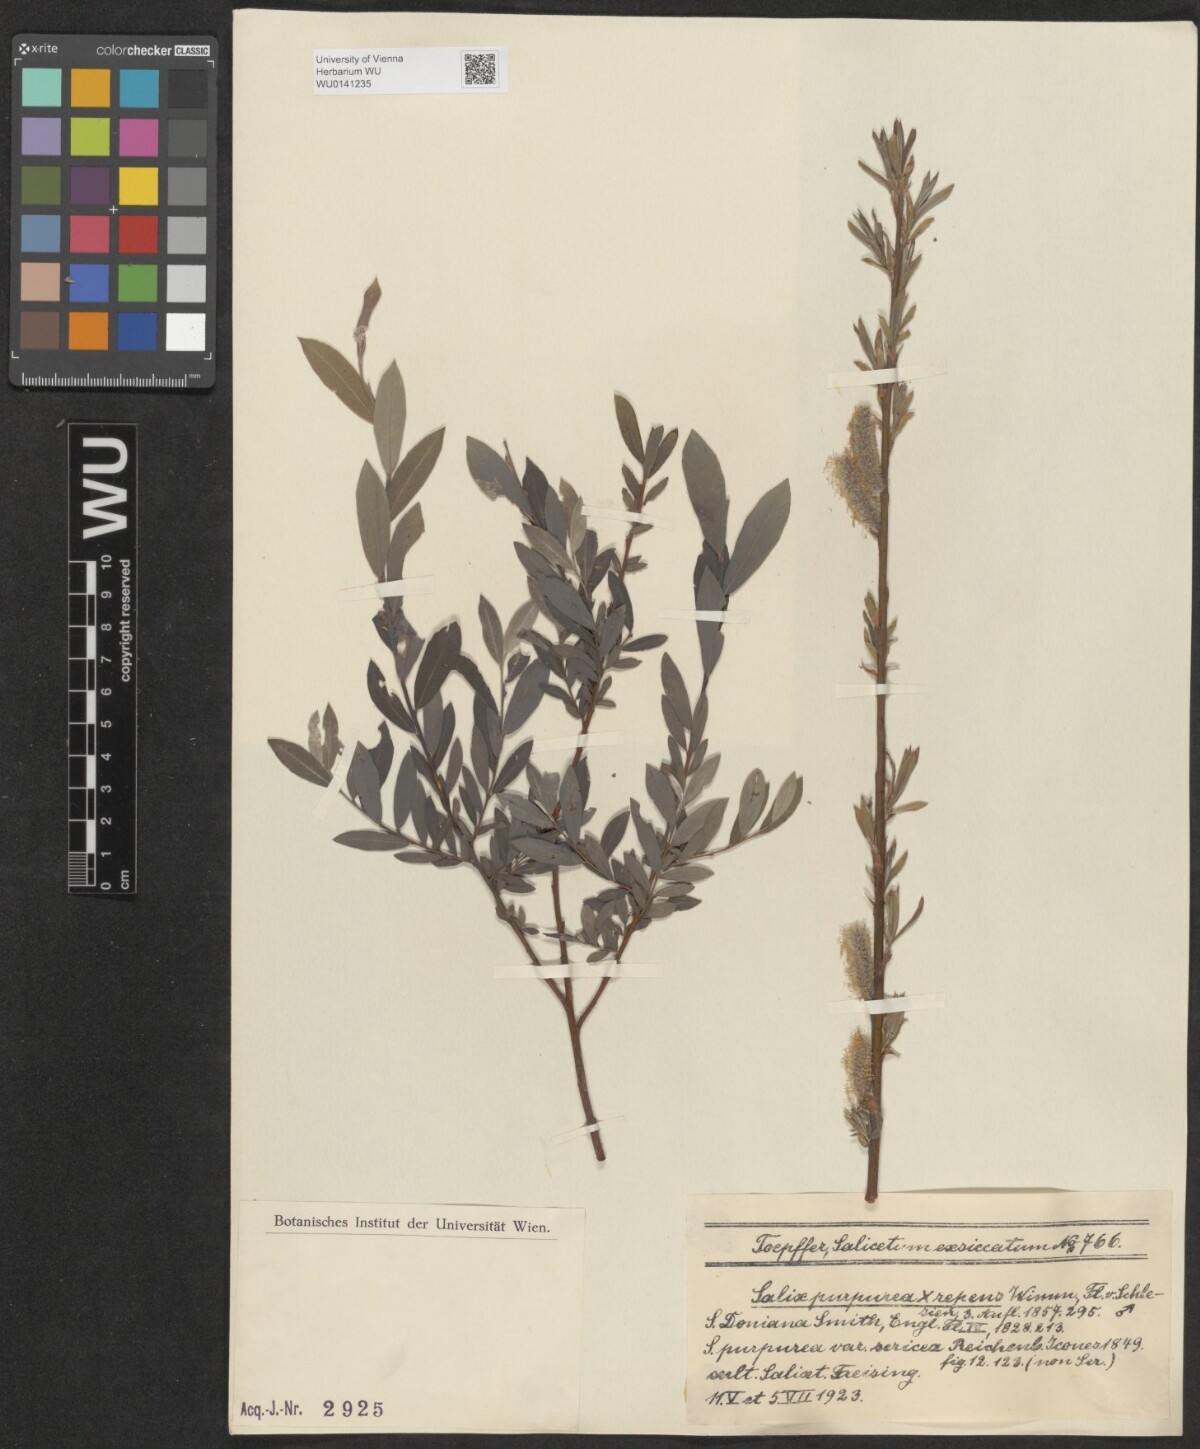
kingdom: Plantae
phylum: Tracheophyta
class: Magnoliopsida
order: Malpighiales
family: Salicaceae
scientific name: Salicaceae
